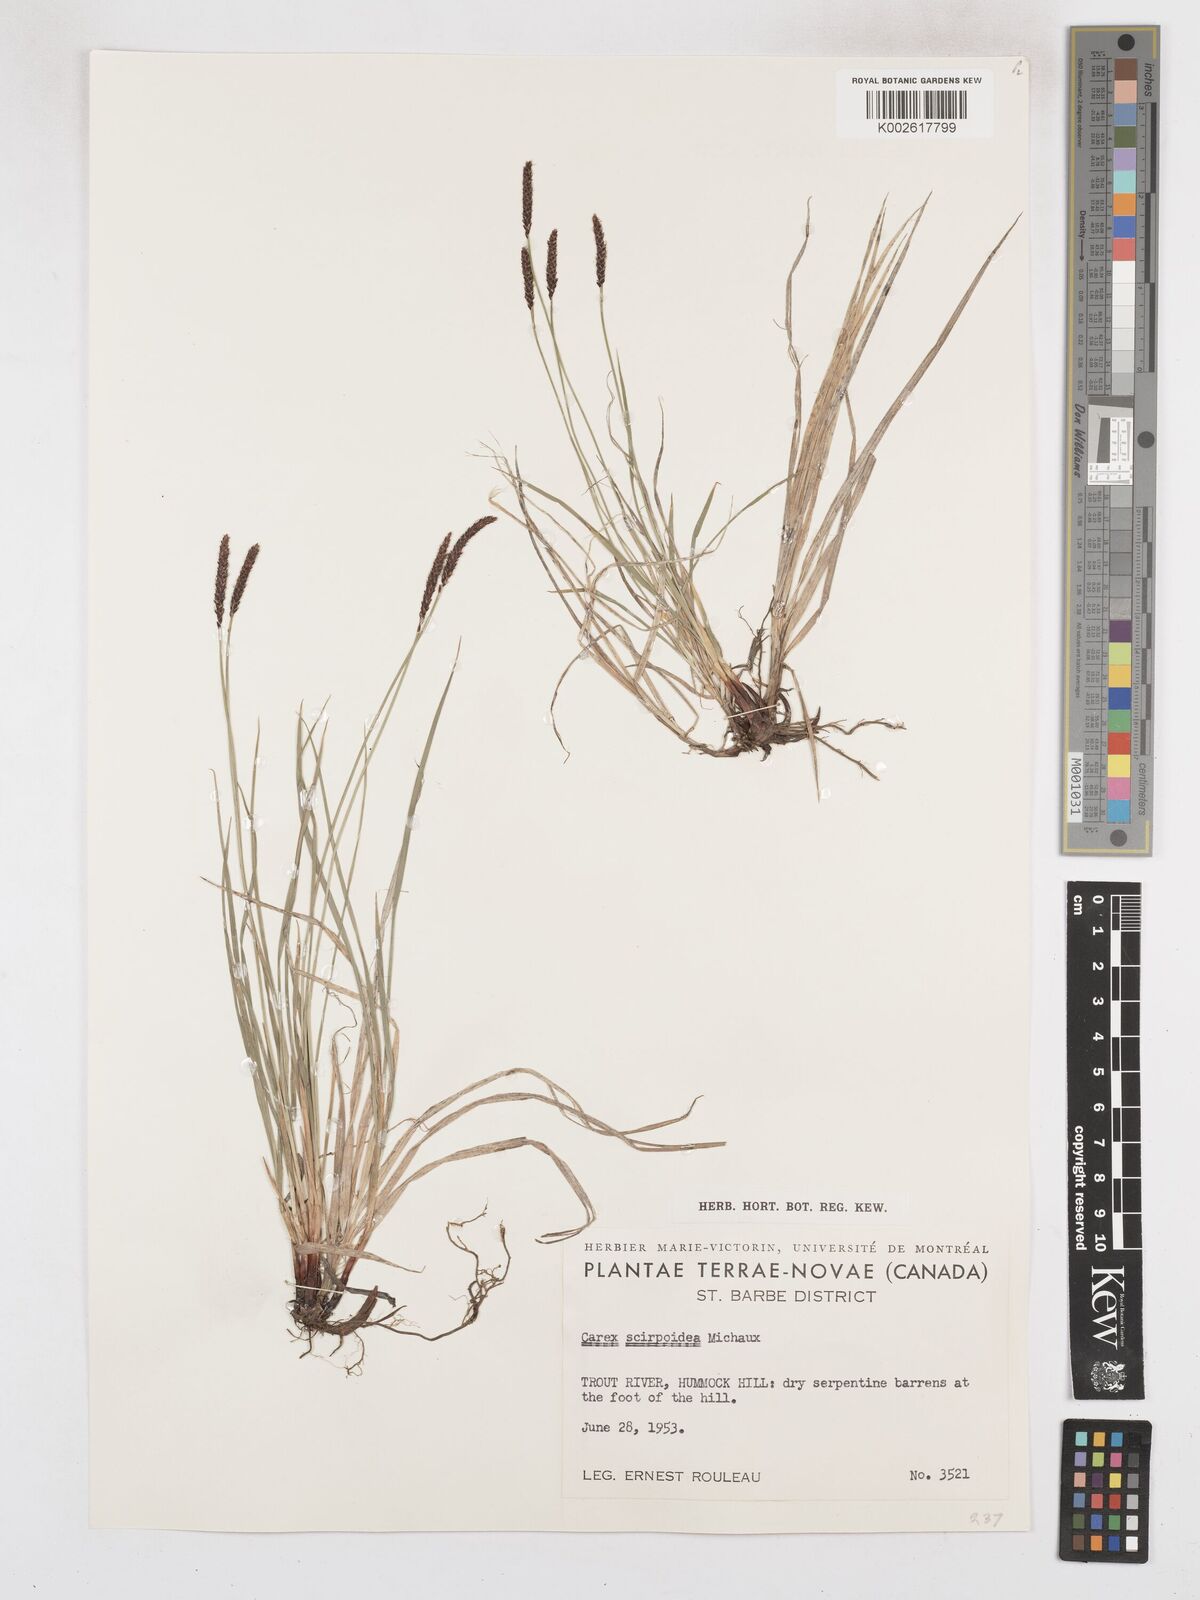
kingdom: Plantae
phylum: Tracheophyta
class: Liliopsida
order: Poales
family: Cyperaceae
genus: Carex
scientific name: Carex scirpoidea
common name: Canada single-spike sedge
